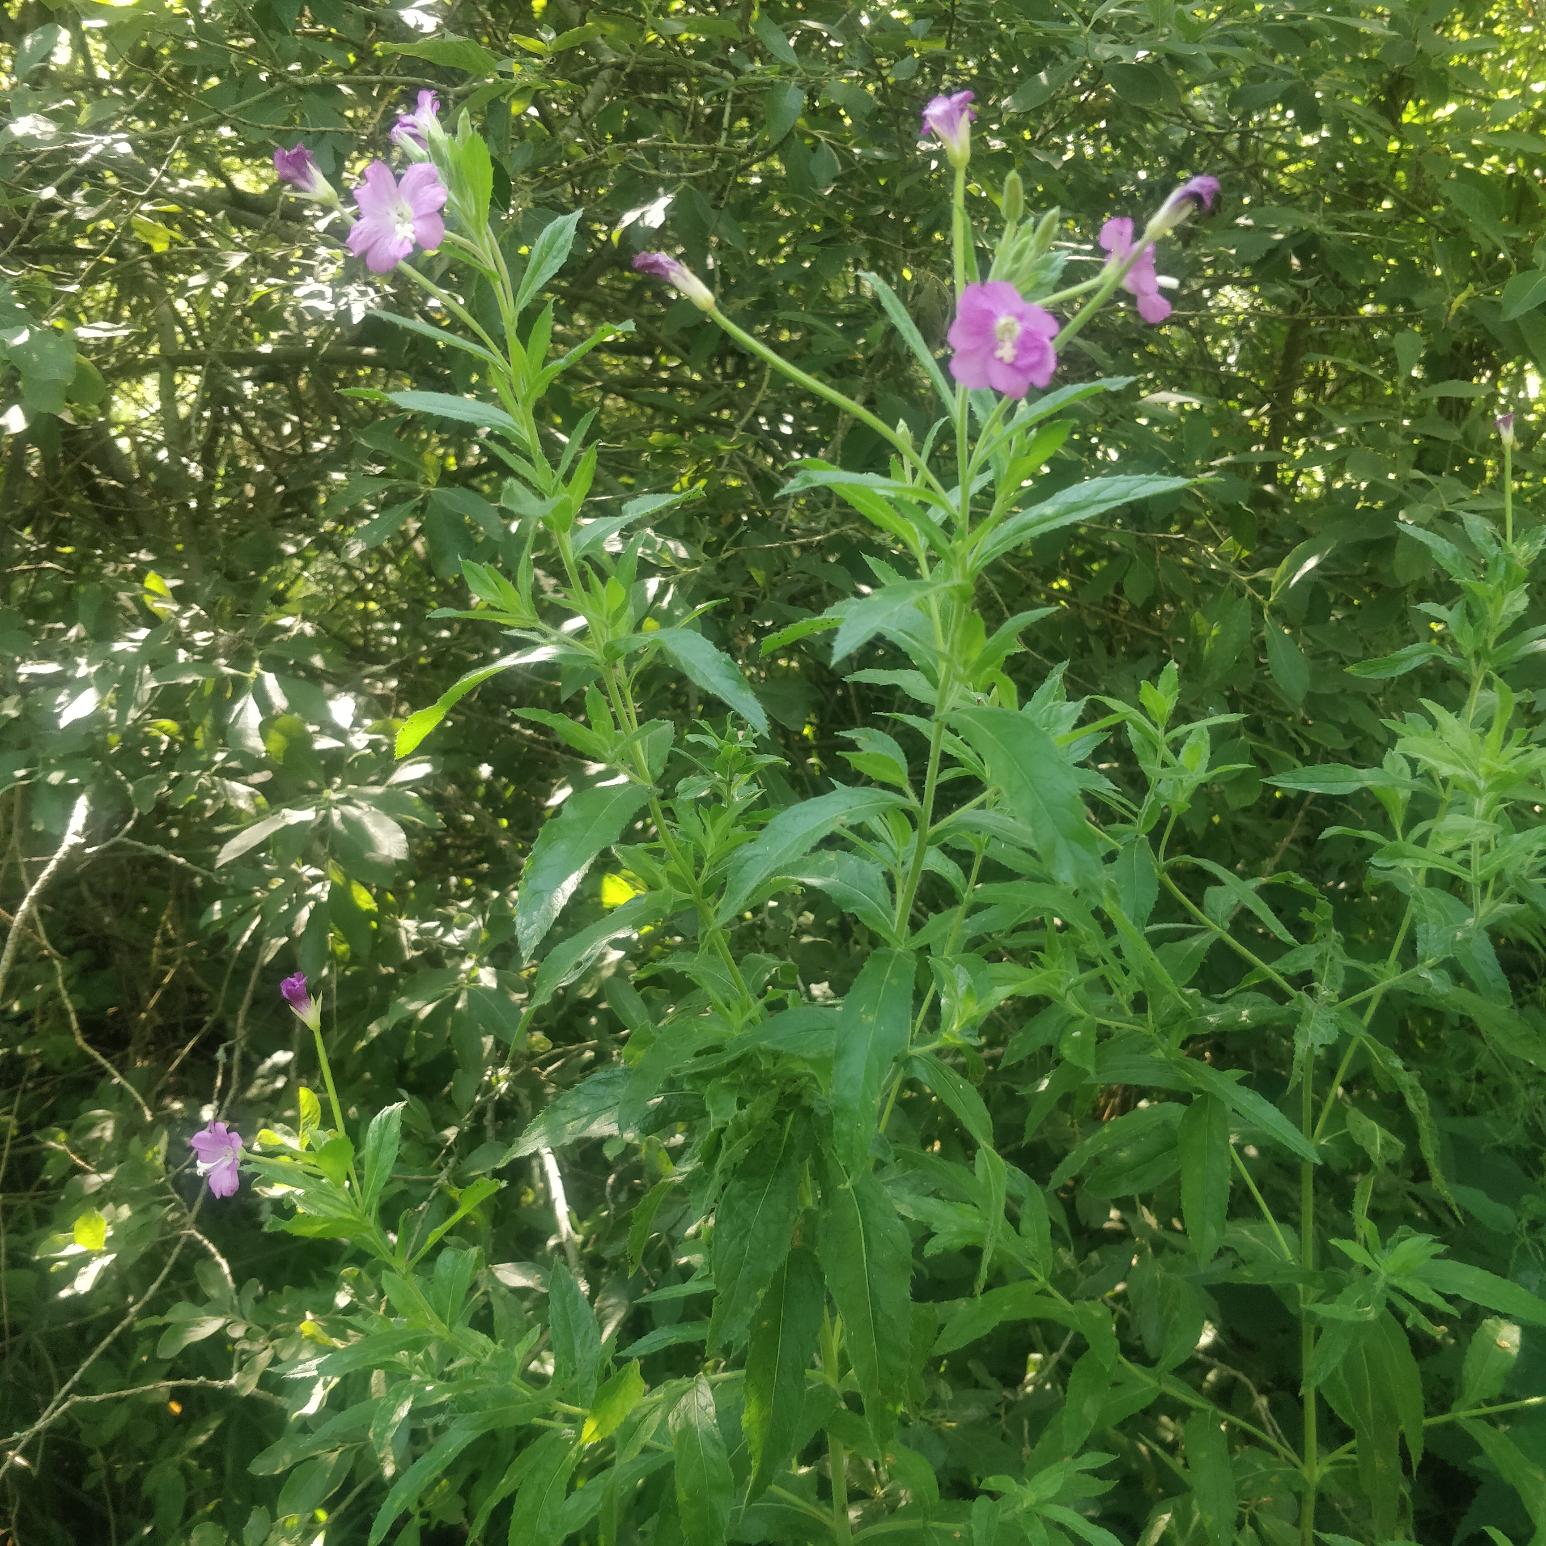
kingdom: Plantae
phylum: Tracheophyta
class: Magnoliopsida
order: Myrtales
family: Onagraceae
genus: Epilobium
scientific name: Epilobium hirsutum
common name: Lådden dueurt
